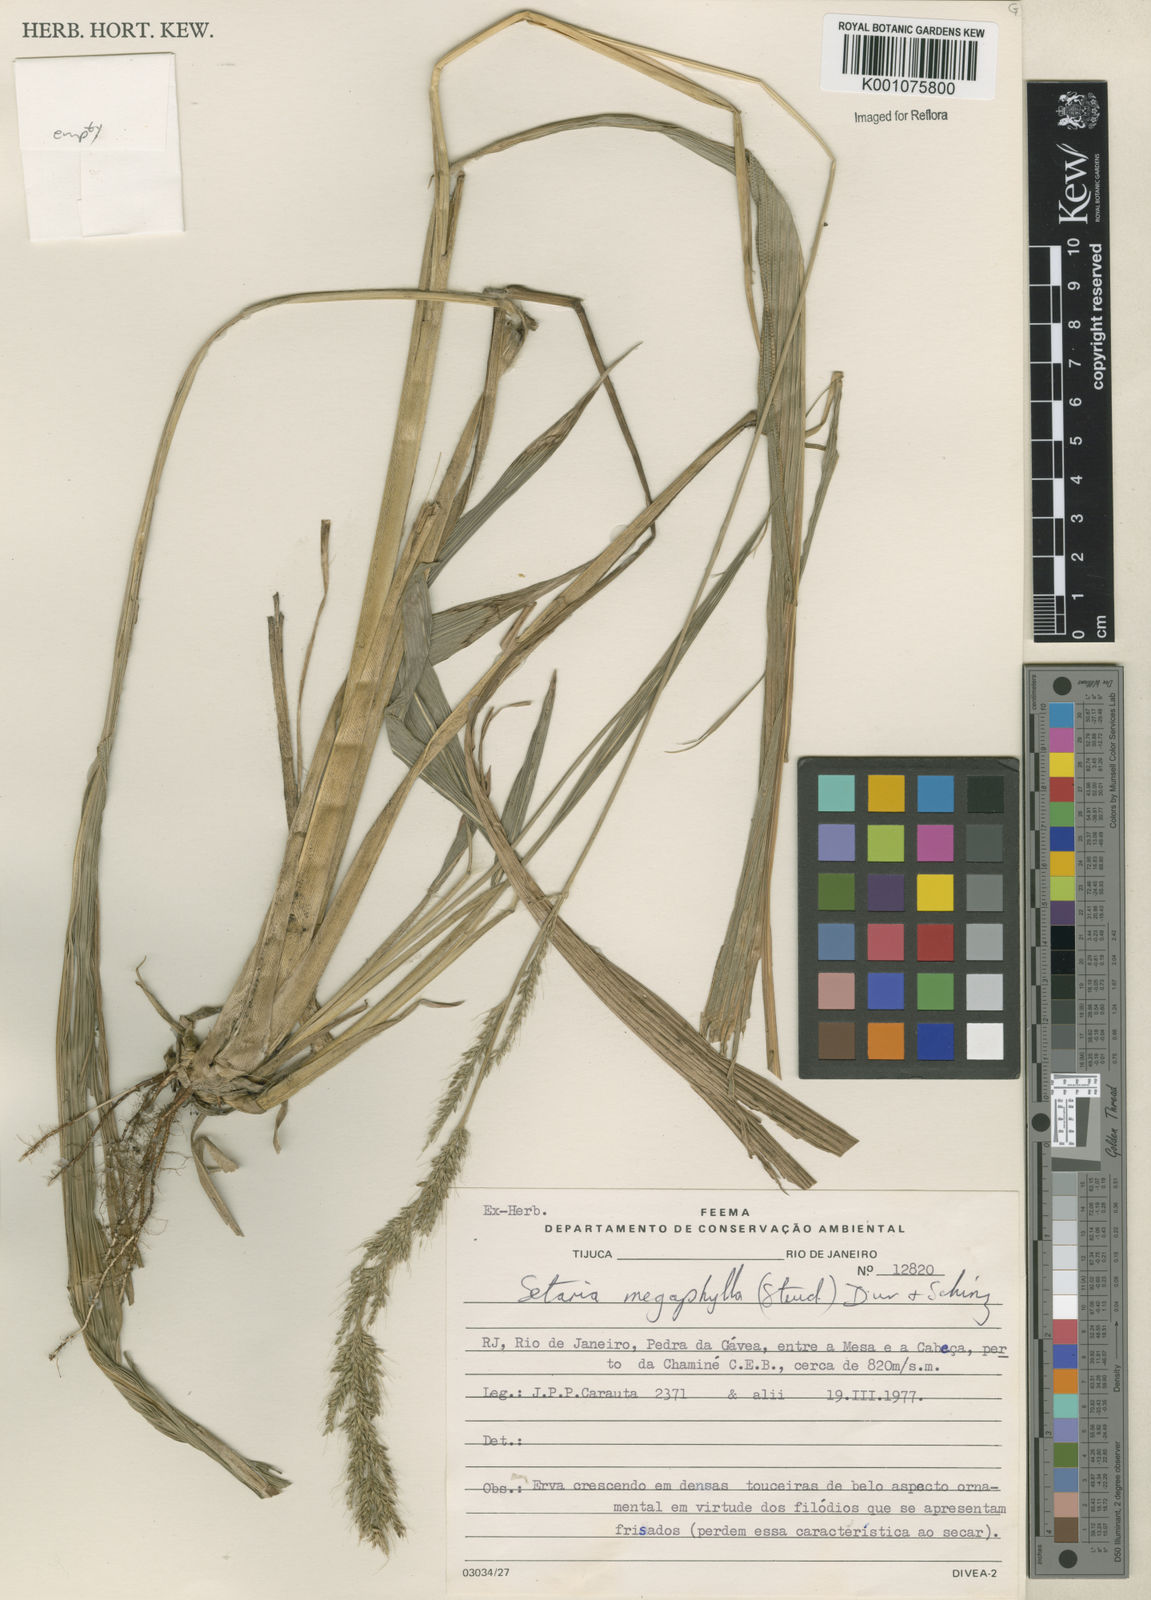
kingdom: Plantae
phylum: Tracheophyta
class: Liliopsida
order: Poales
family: Poaceae
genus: Setaria
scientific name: Setaria megaphylla
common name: Bigleaf bristlegrass
